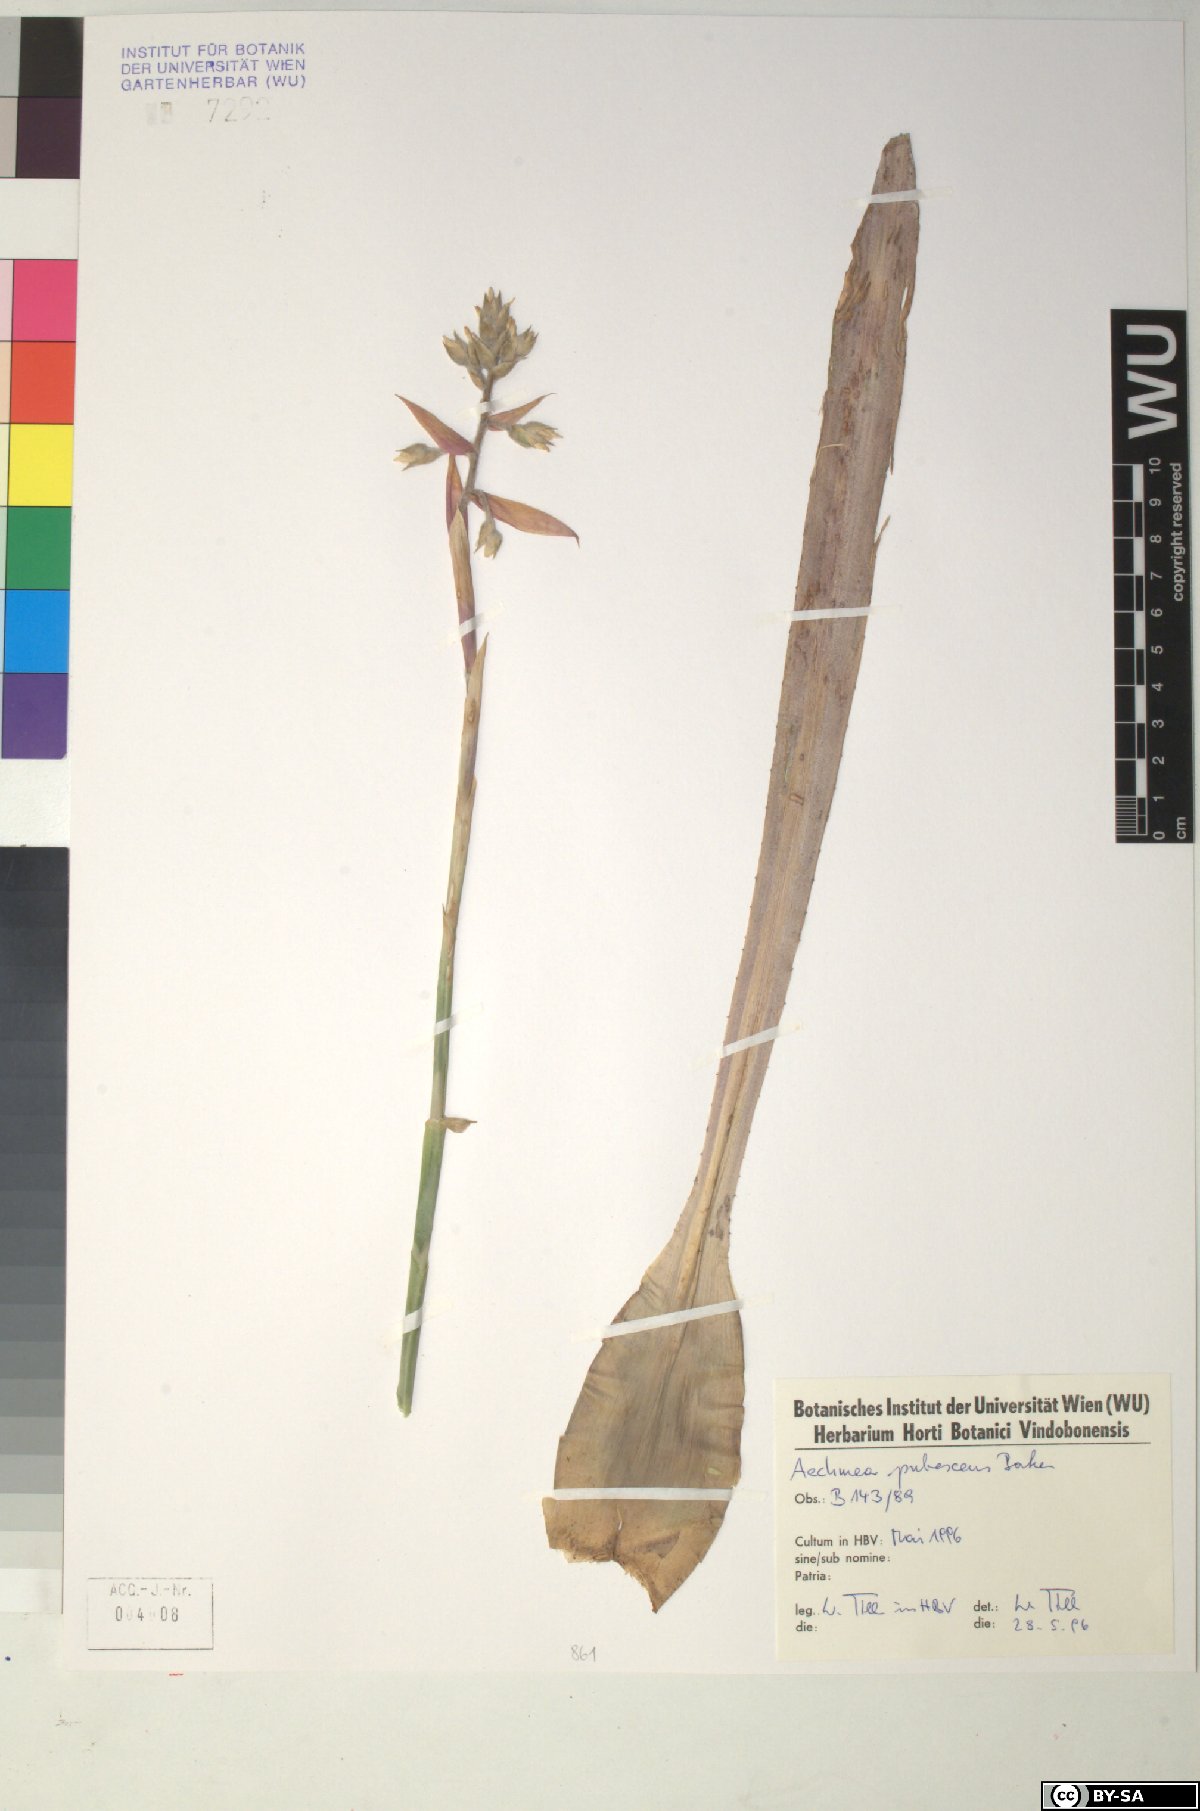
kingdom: Plantae
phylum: Tracheophyta
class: Liliopsida
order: Poales
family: Bromeliaceae
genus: Aechmea
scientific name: Aechmea pubescens
